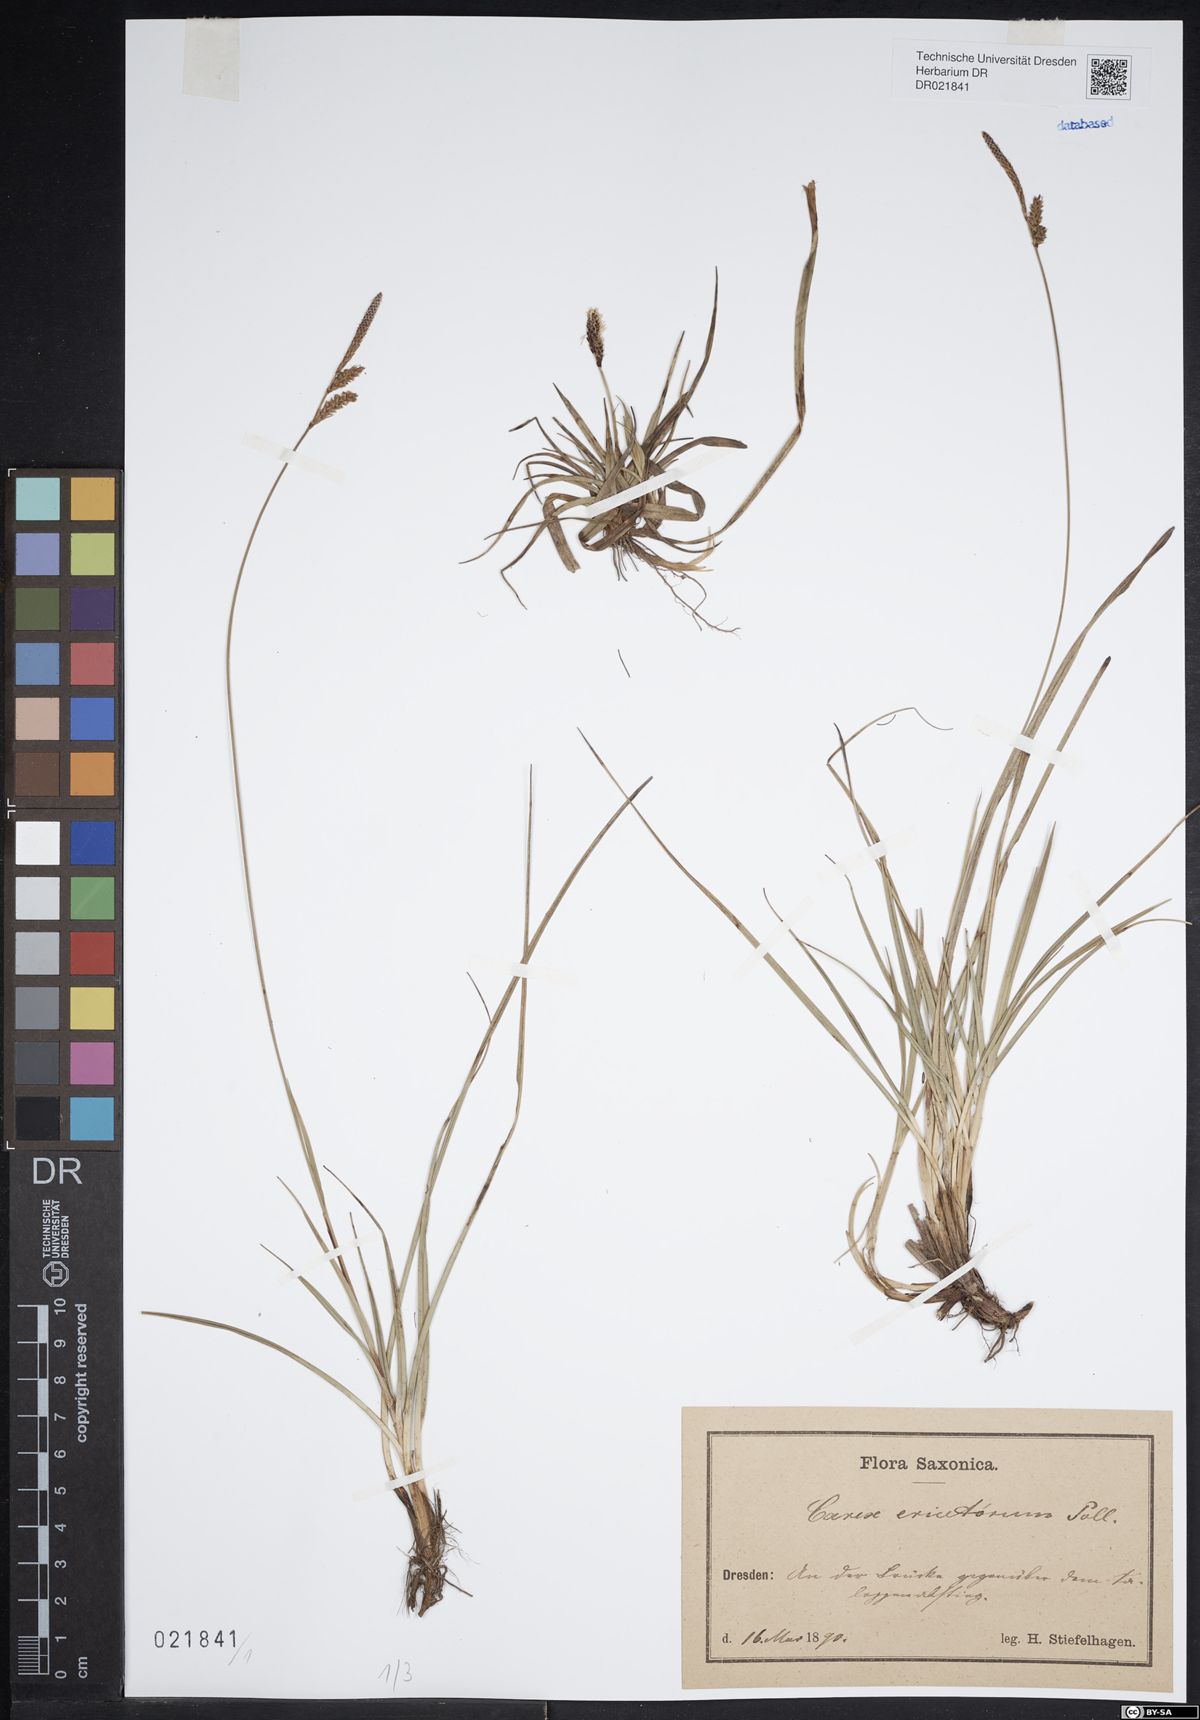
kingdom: Plantae
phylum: Tracheophyta
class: Liliopsida
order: Poales
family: Cyperaceae
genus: Carex
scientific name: Carex ericetorum
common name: Rare spring-sedge
